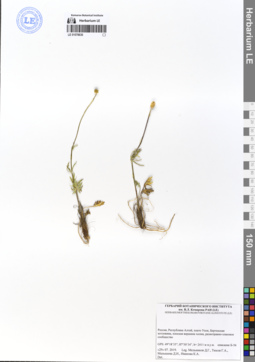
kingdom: Plantae
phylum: Tracheophyta
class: Magnoliopsida
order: Ranunculales
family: Ranunculaceae
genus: Ranunculus
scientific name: Ranunculus pedatifidus
